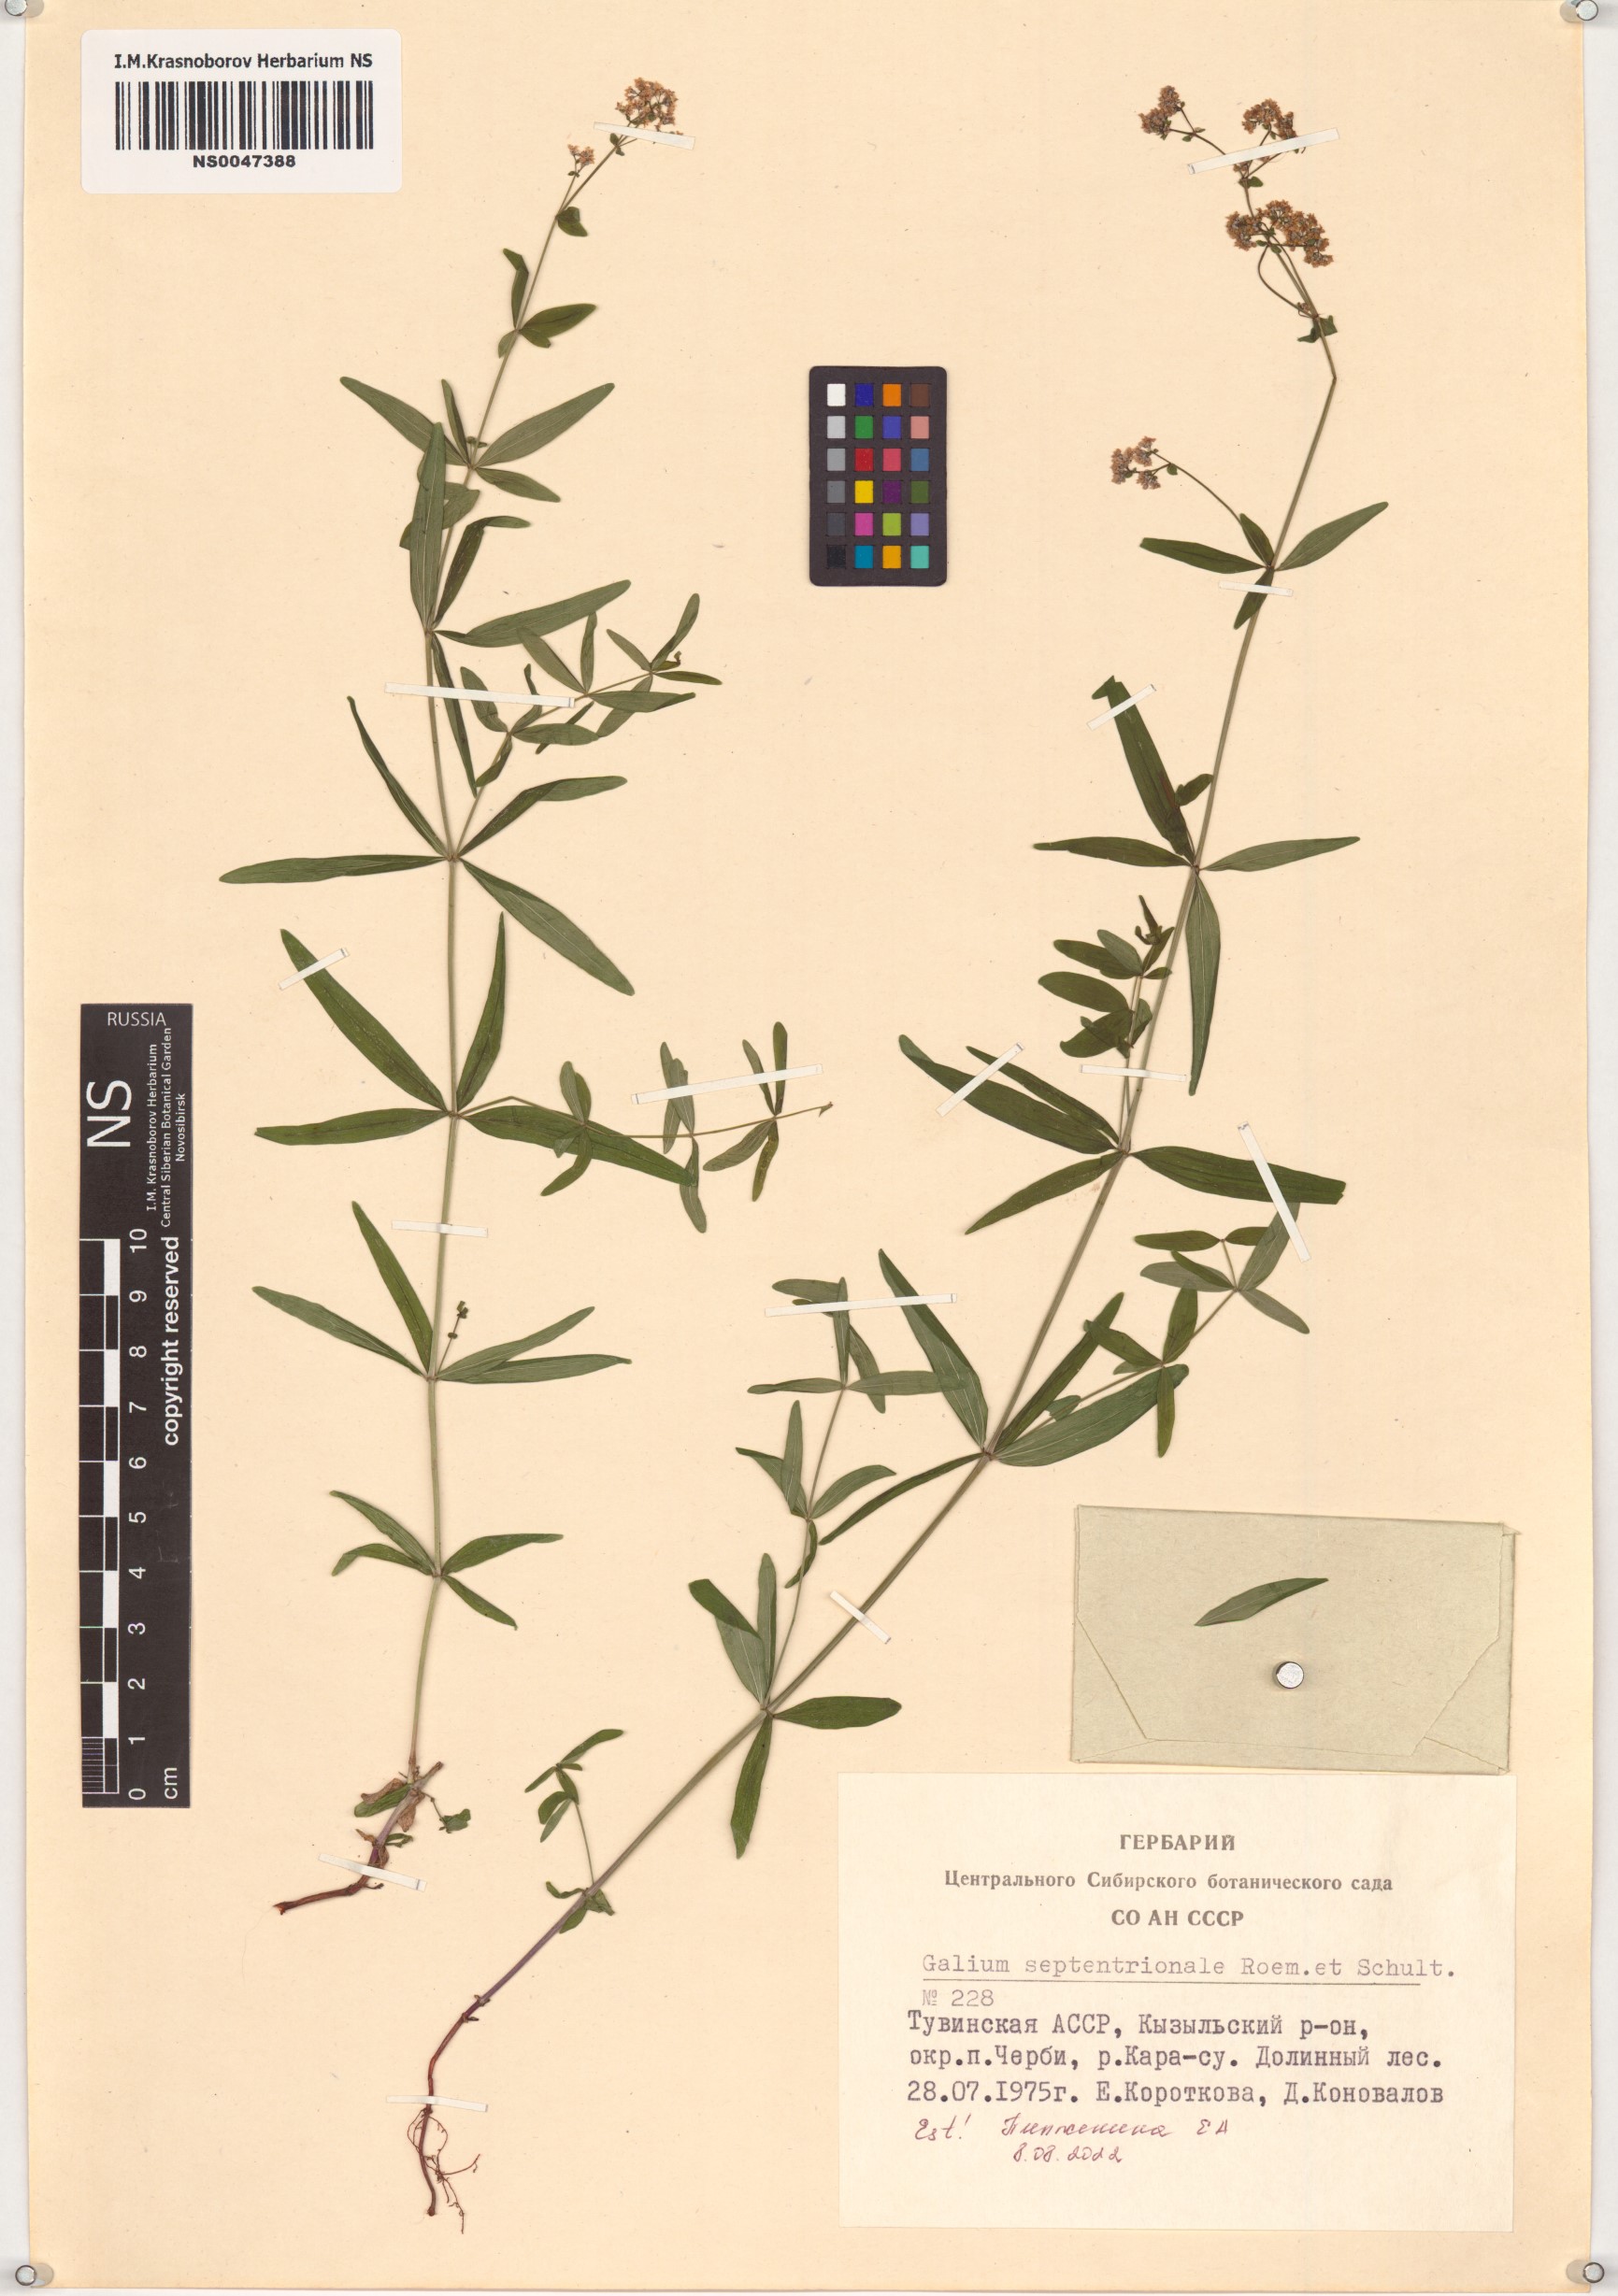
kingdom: Plantae
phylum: Tracheophyta
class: Magnoliopsida
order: Gentianales
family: Rubiaceae
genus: Galium
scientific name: Galium boreale
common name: Northern bedstraw
